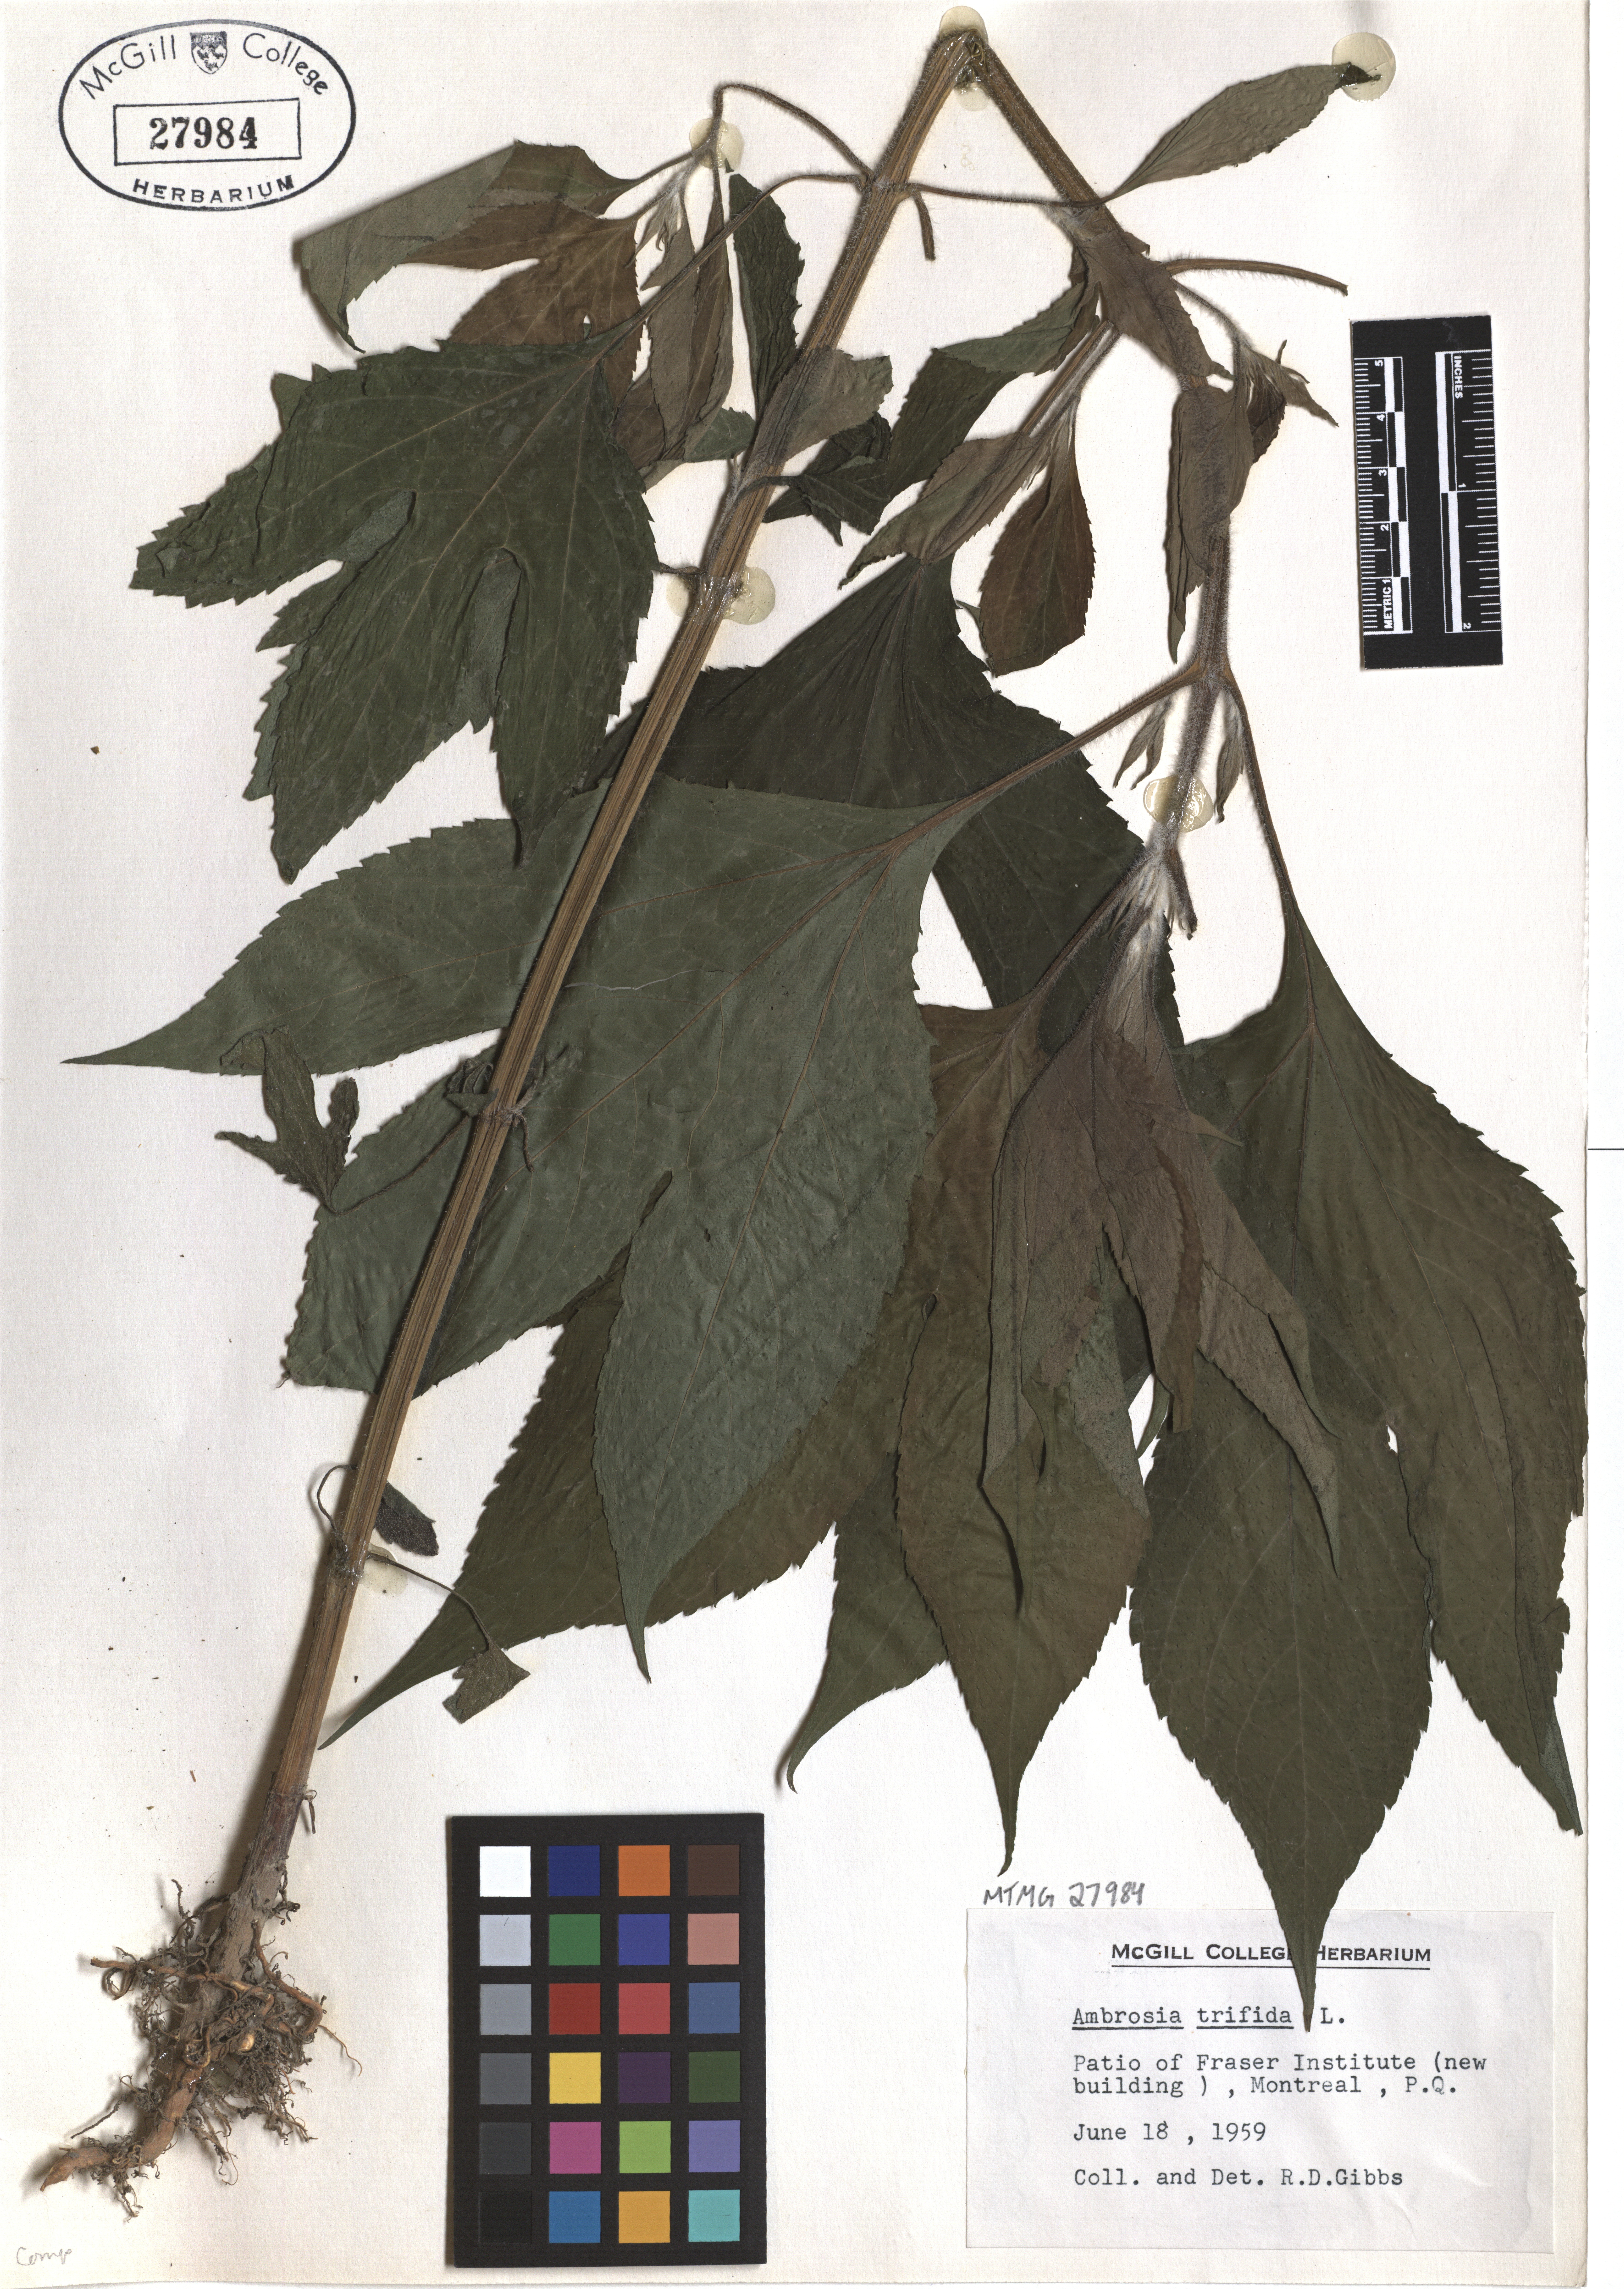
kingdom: Plantae
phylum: Tracheophyta
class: Magnoliopsida
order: Asterales
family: Asteraceae
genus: Ambrosia
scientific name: Ambrosia trifida
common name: Giant ragweed
